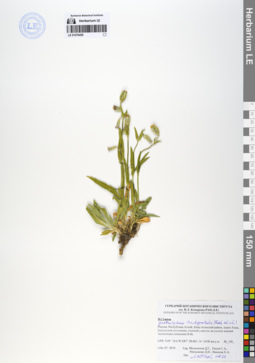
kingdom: Plantae
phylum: Tracheophyta
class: Magnoliopsida
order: Caryophyllales
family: Caryophyllaceae
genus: Silene
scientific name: Silene songarica
